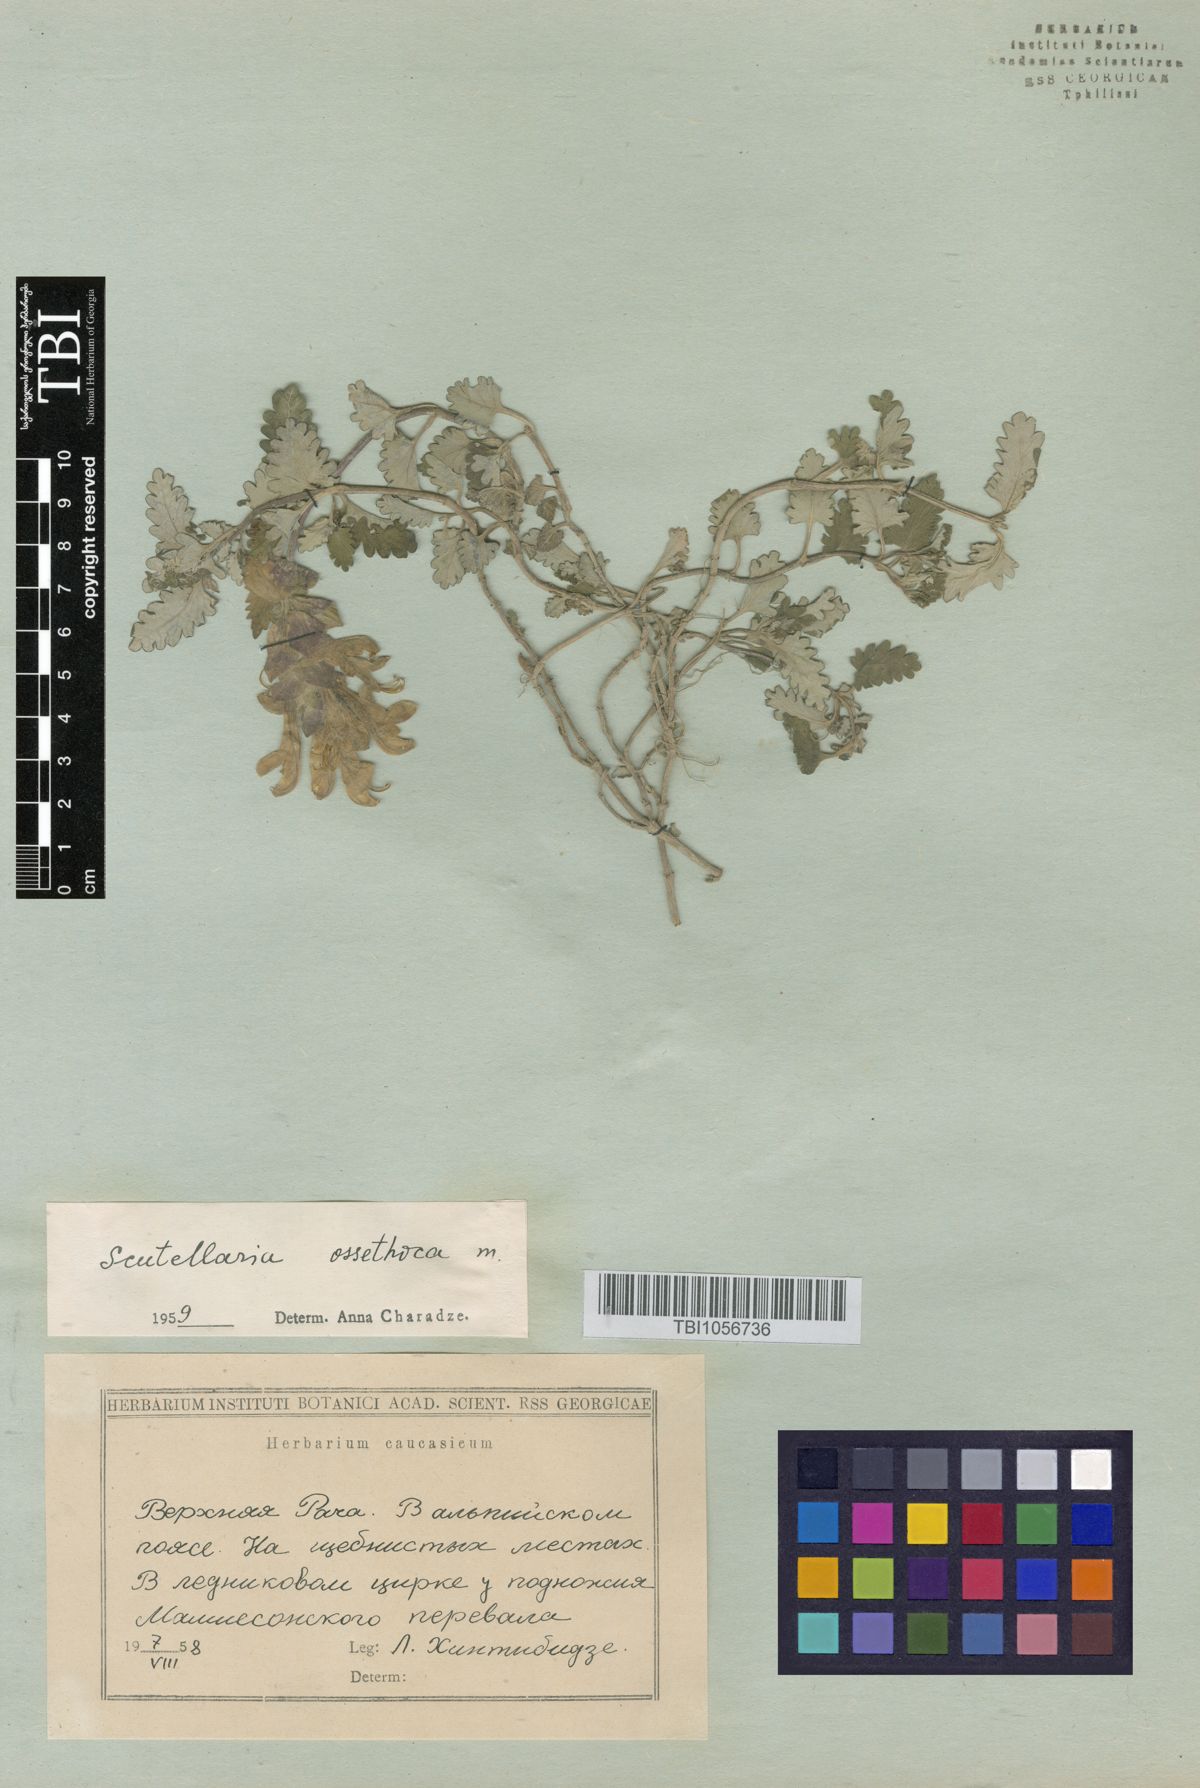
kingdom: Plantae
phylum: Tracheophyta
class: Magnoliopsida
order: Lamiales
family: Lamiaceae
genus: Scutellaria
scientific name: Scutellaria ossethica
